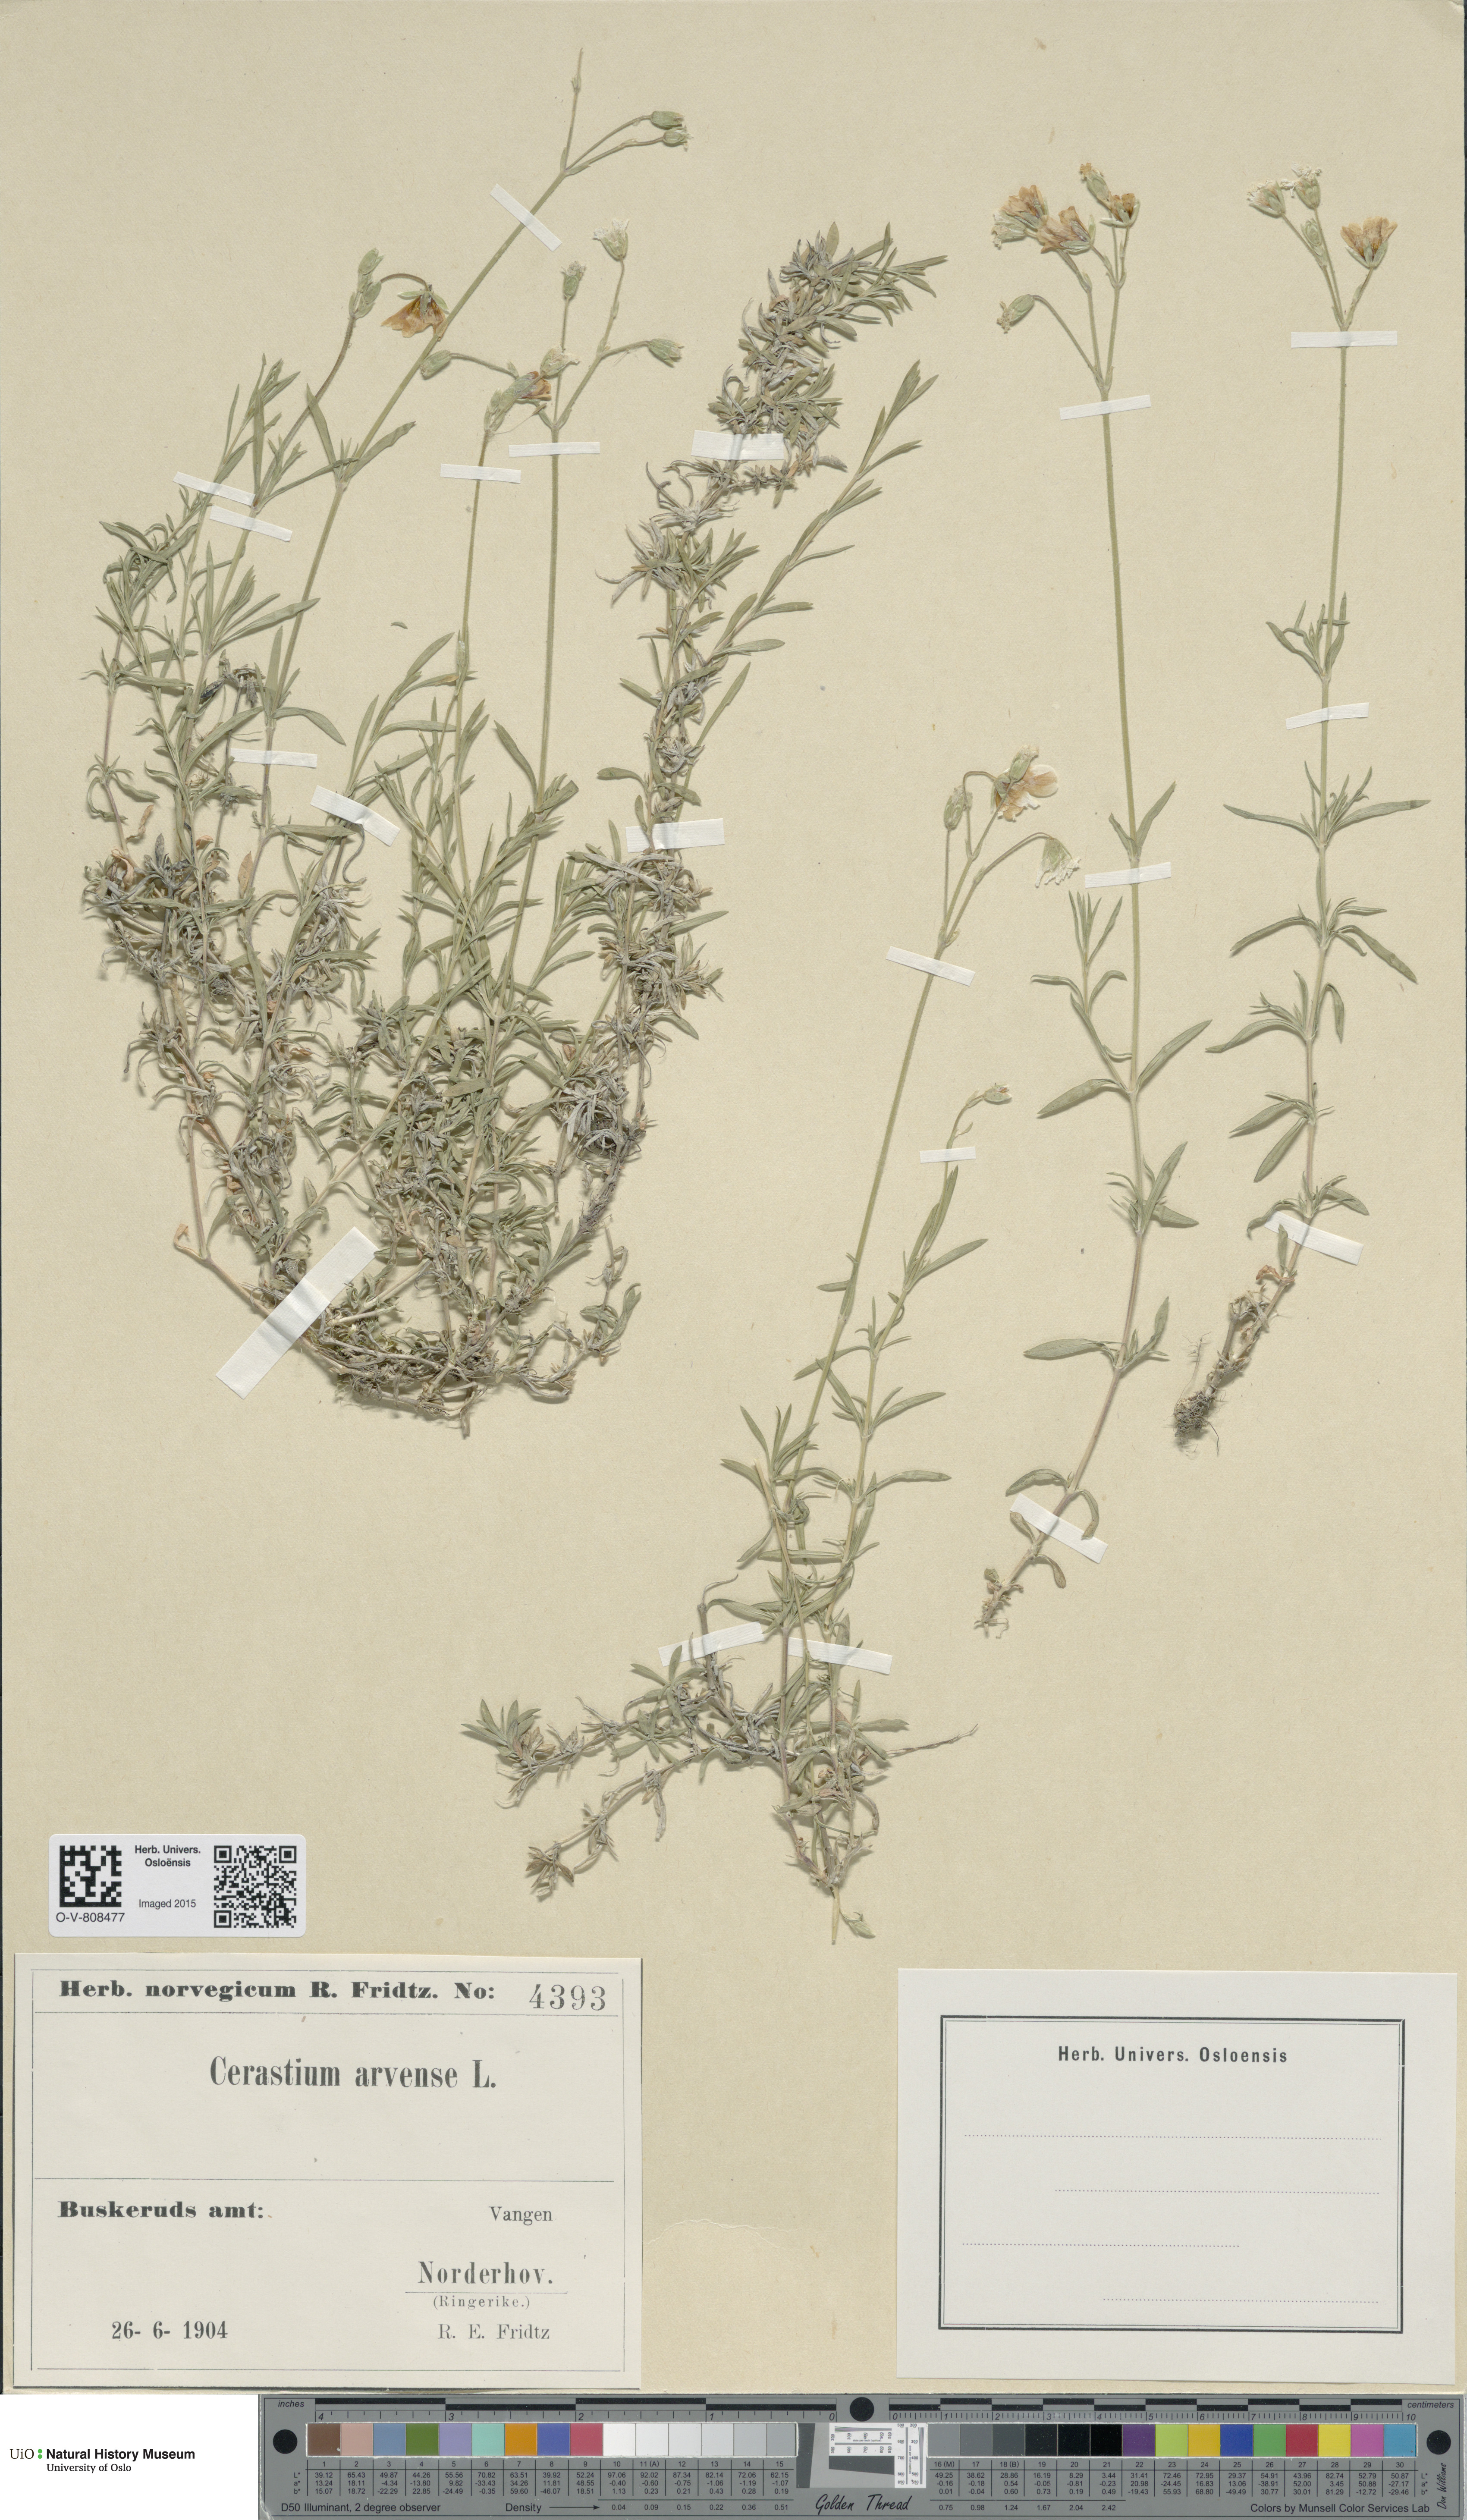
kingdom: Plantae
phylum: Tracheophyta
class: Magnoliopsida
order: Caryophyllales
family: Caryophyllaceae
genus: Cerastium
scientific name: Cerastium arvense
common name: Field mouse-ear
